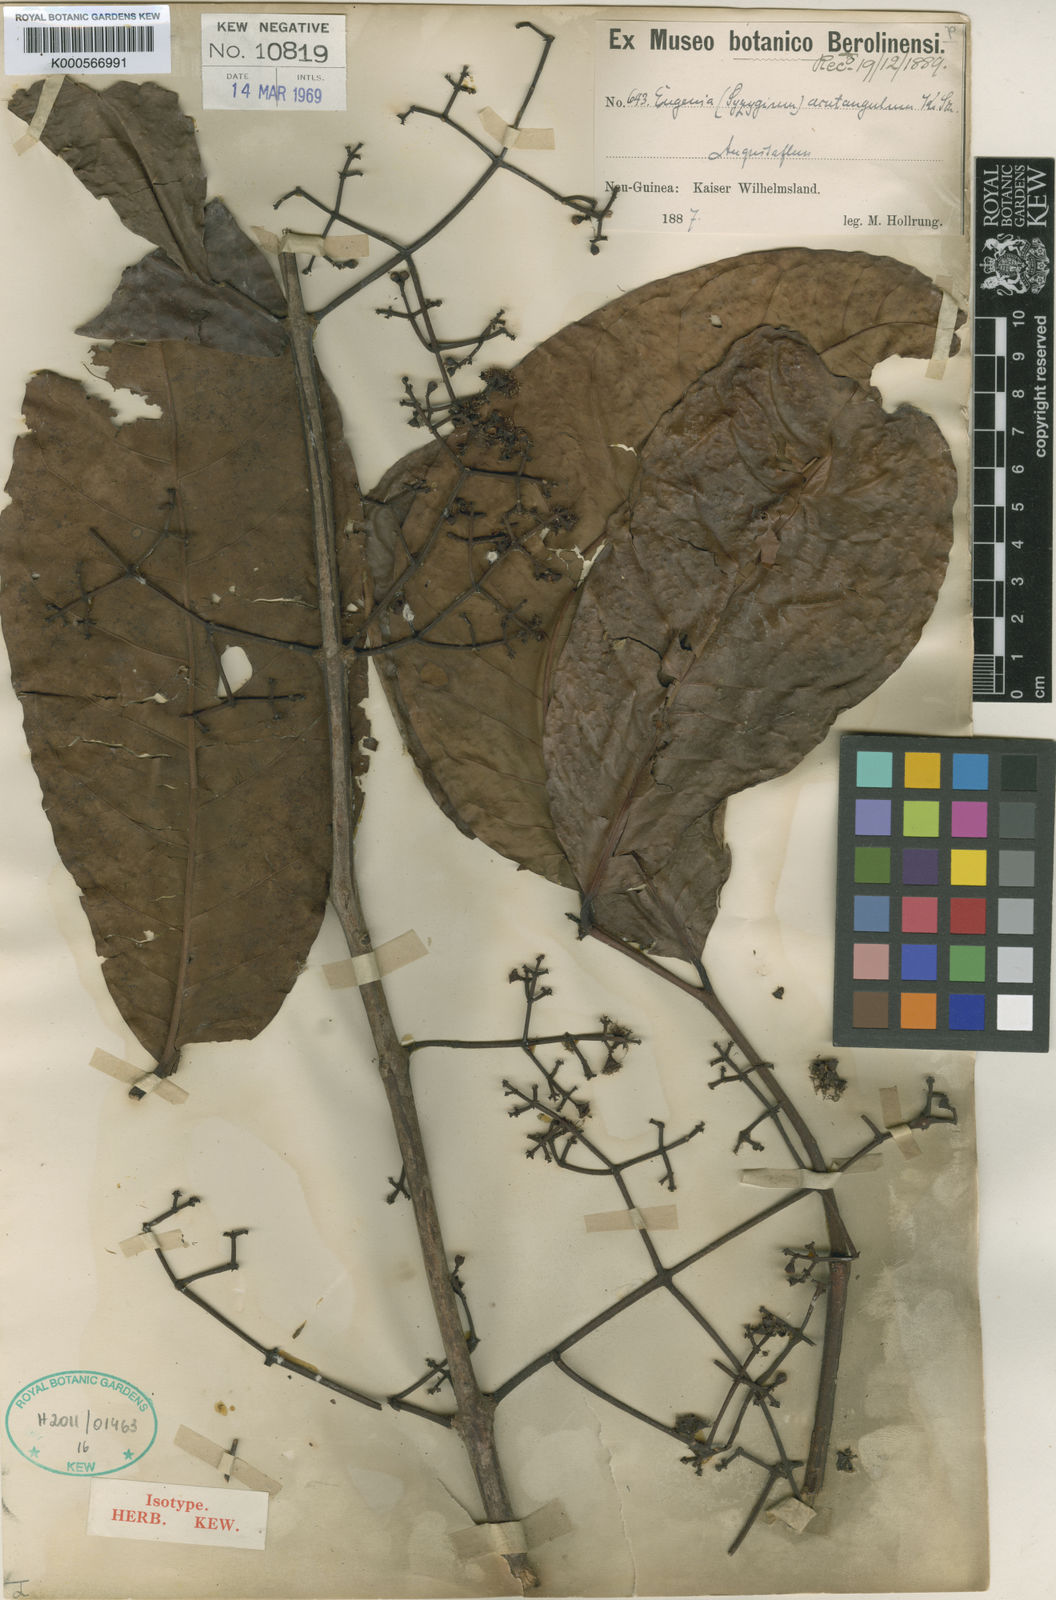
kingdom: Plantae
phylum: Tracheophyta
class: Magnoliopsida
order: Myrtales
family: Myrtaceae
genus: Syzygium
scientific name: Syzygium acutangulum
